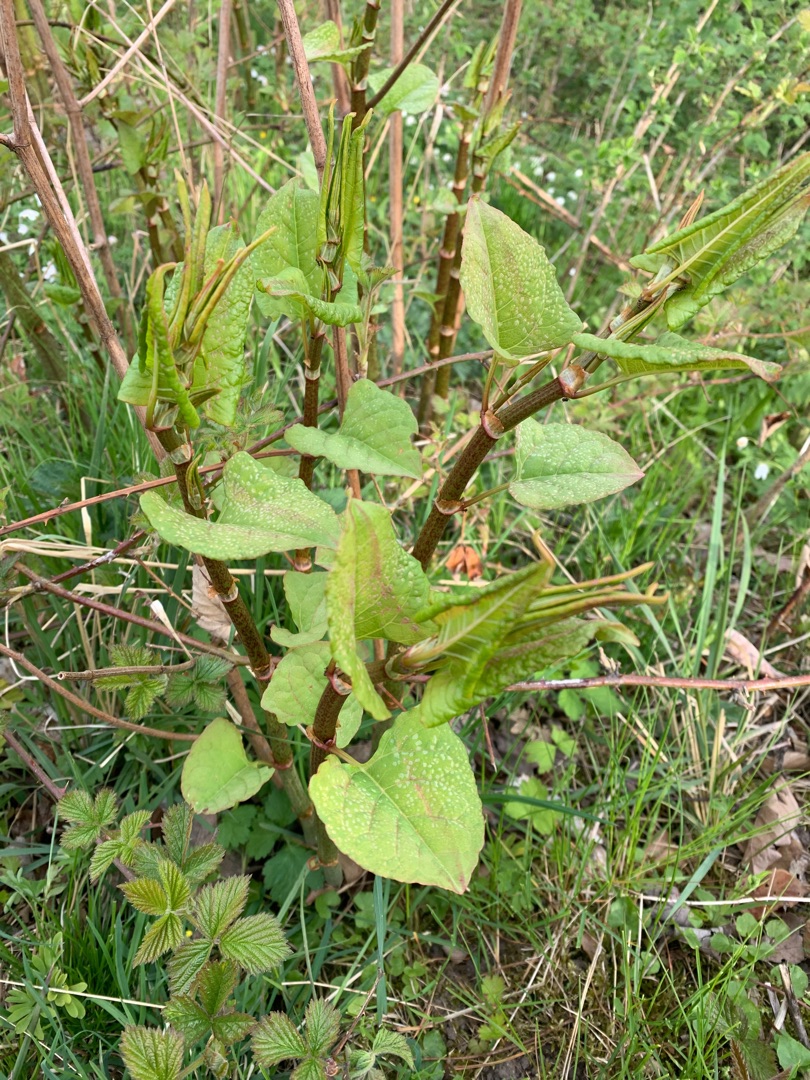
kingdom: Plantae
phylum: Tracheophyta
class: Magnoliopsida
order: Caryophyllales
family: Polygonaceae
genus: Reynoutria
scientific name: Reynoutria
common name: Pileurt (Reynoutria-slægten)
